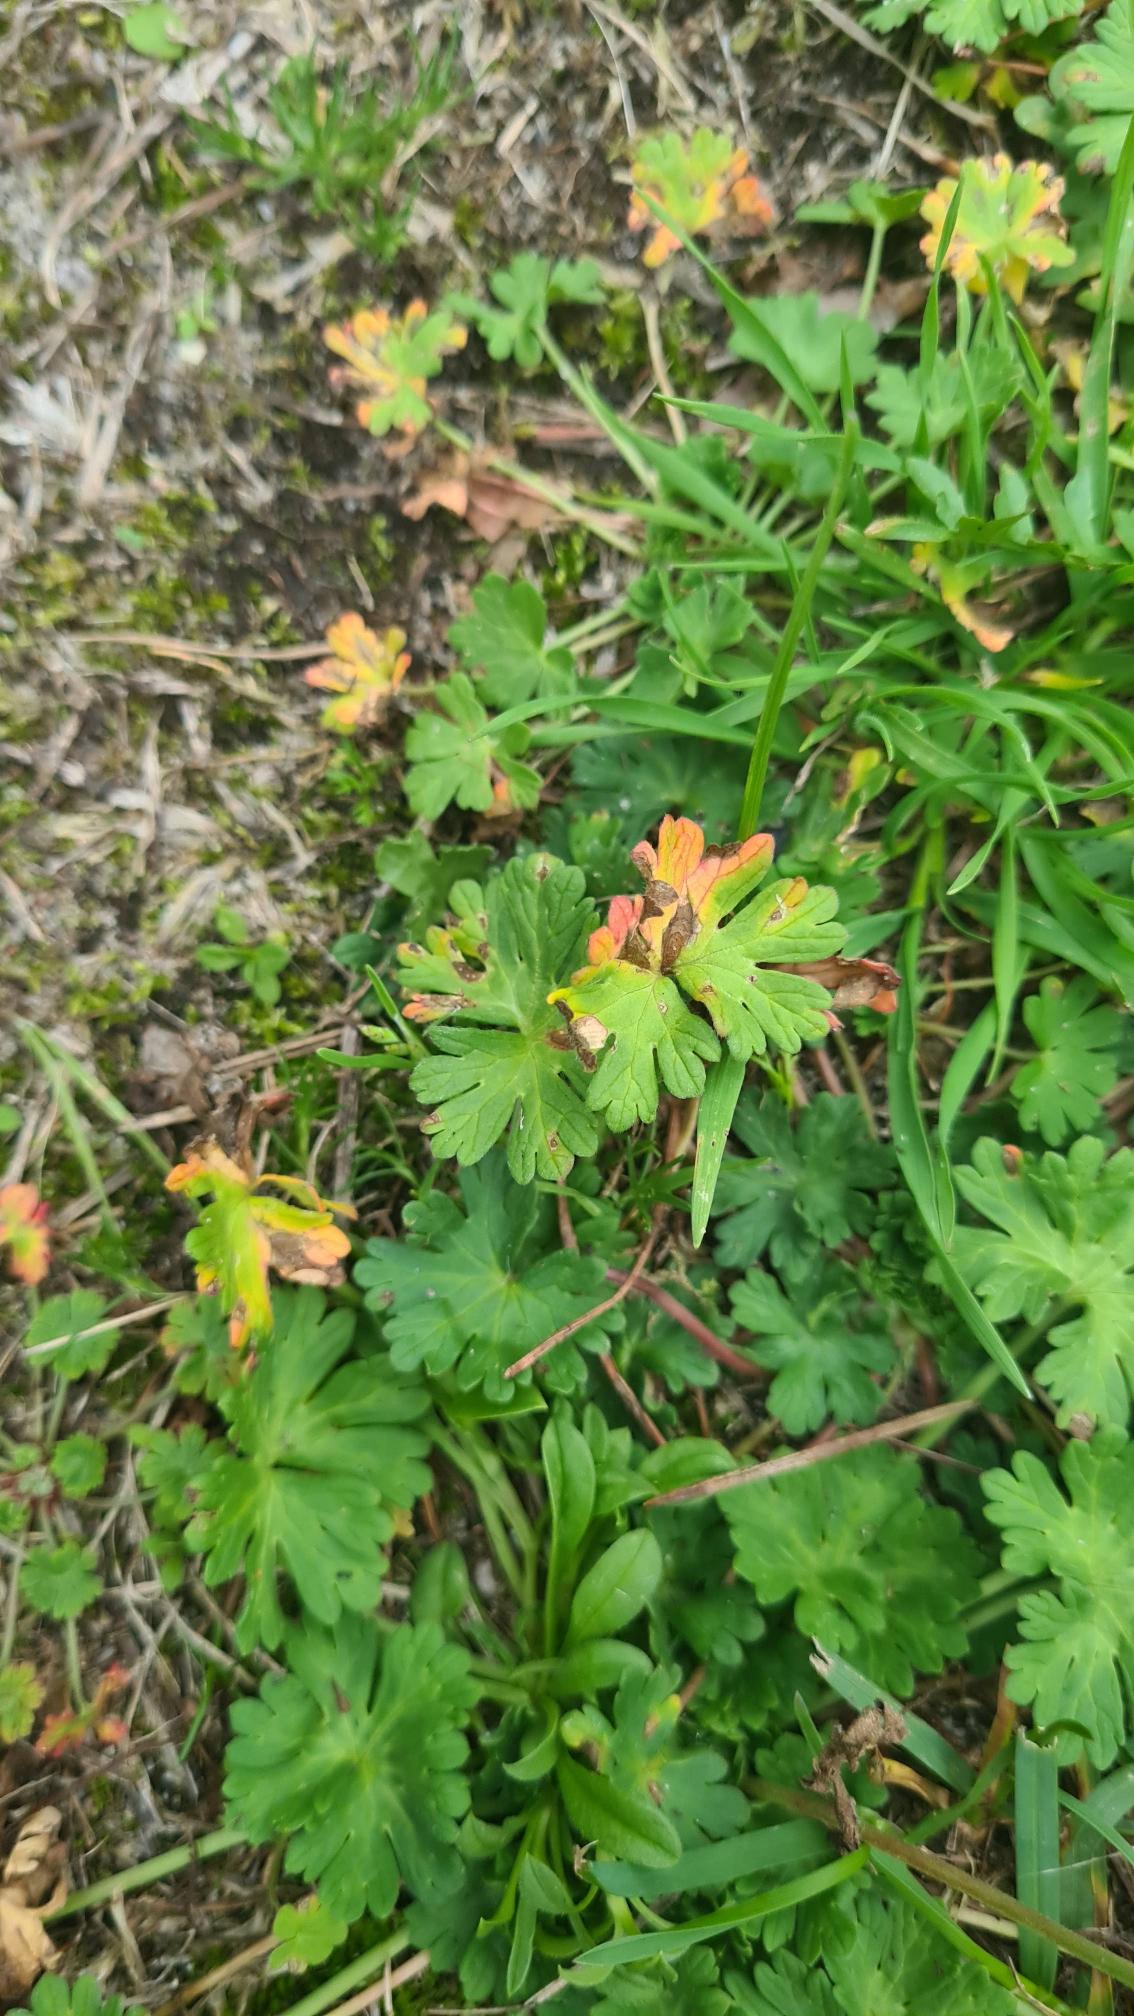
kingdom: Plantae
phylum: Tracheophyta
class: Magnoliopsida
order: Geraniales
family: Geraniaceae
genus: Geranium
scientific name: Geranium molle
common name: Blød storkenæb
